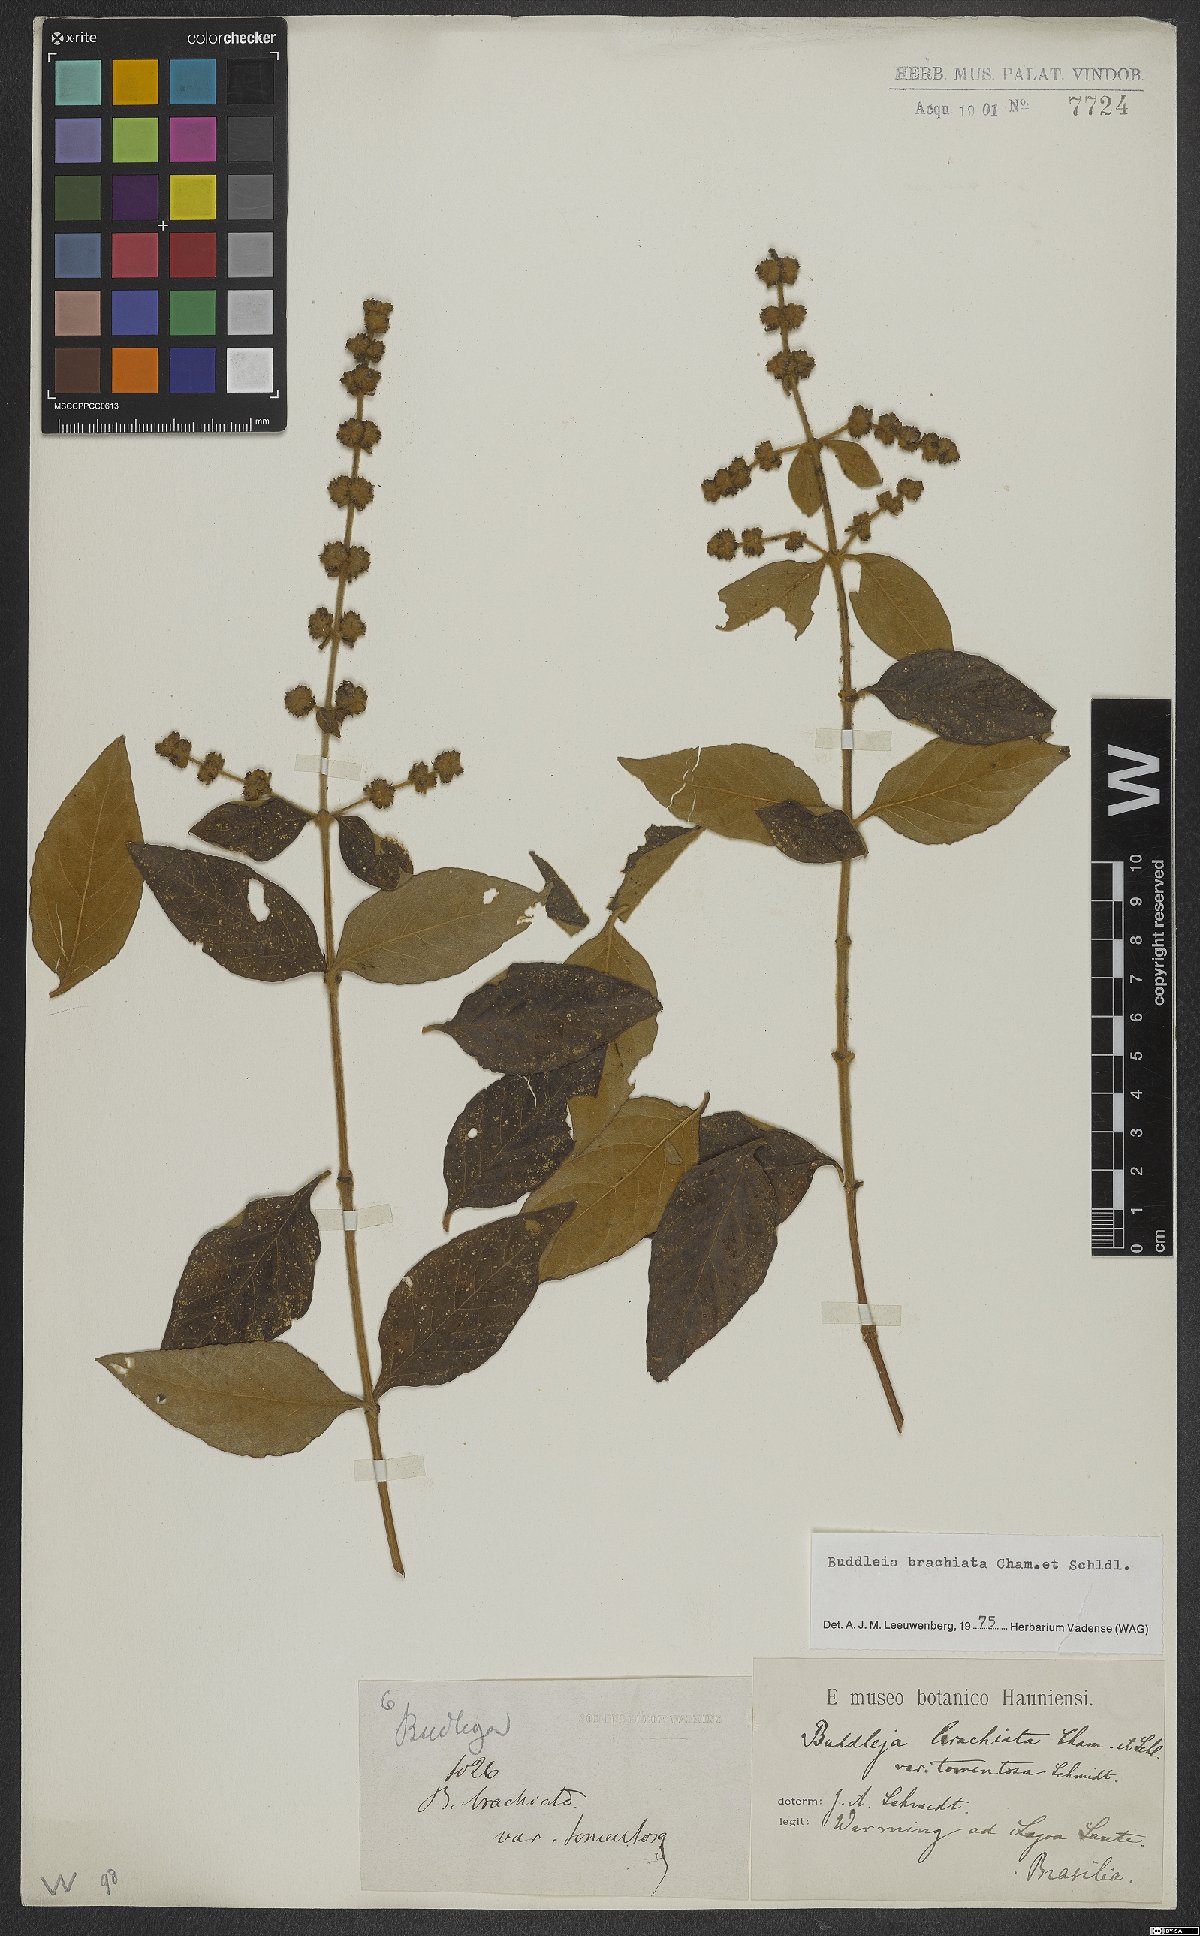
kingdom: Plantae
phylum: Tracheophyta
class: Magnoliopsida
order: Lamiales
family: Scrophulariaceae
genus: Buddleja
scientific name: Buddleja brachiata
